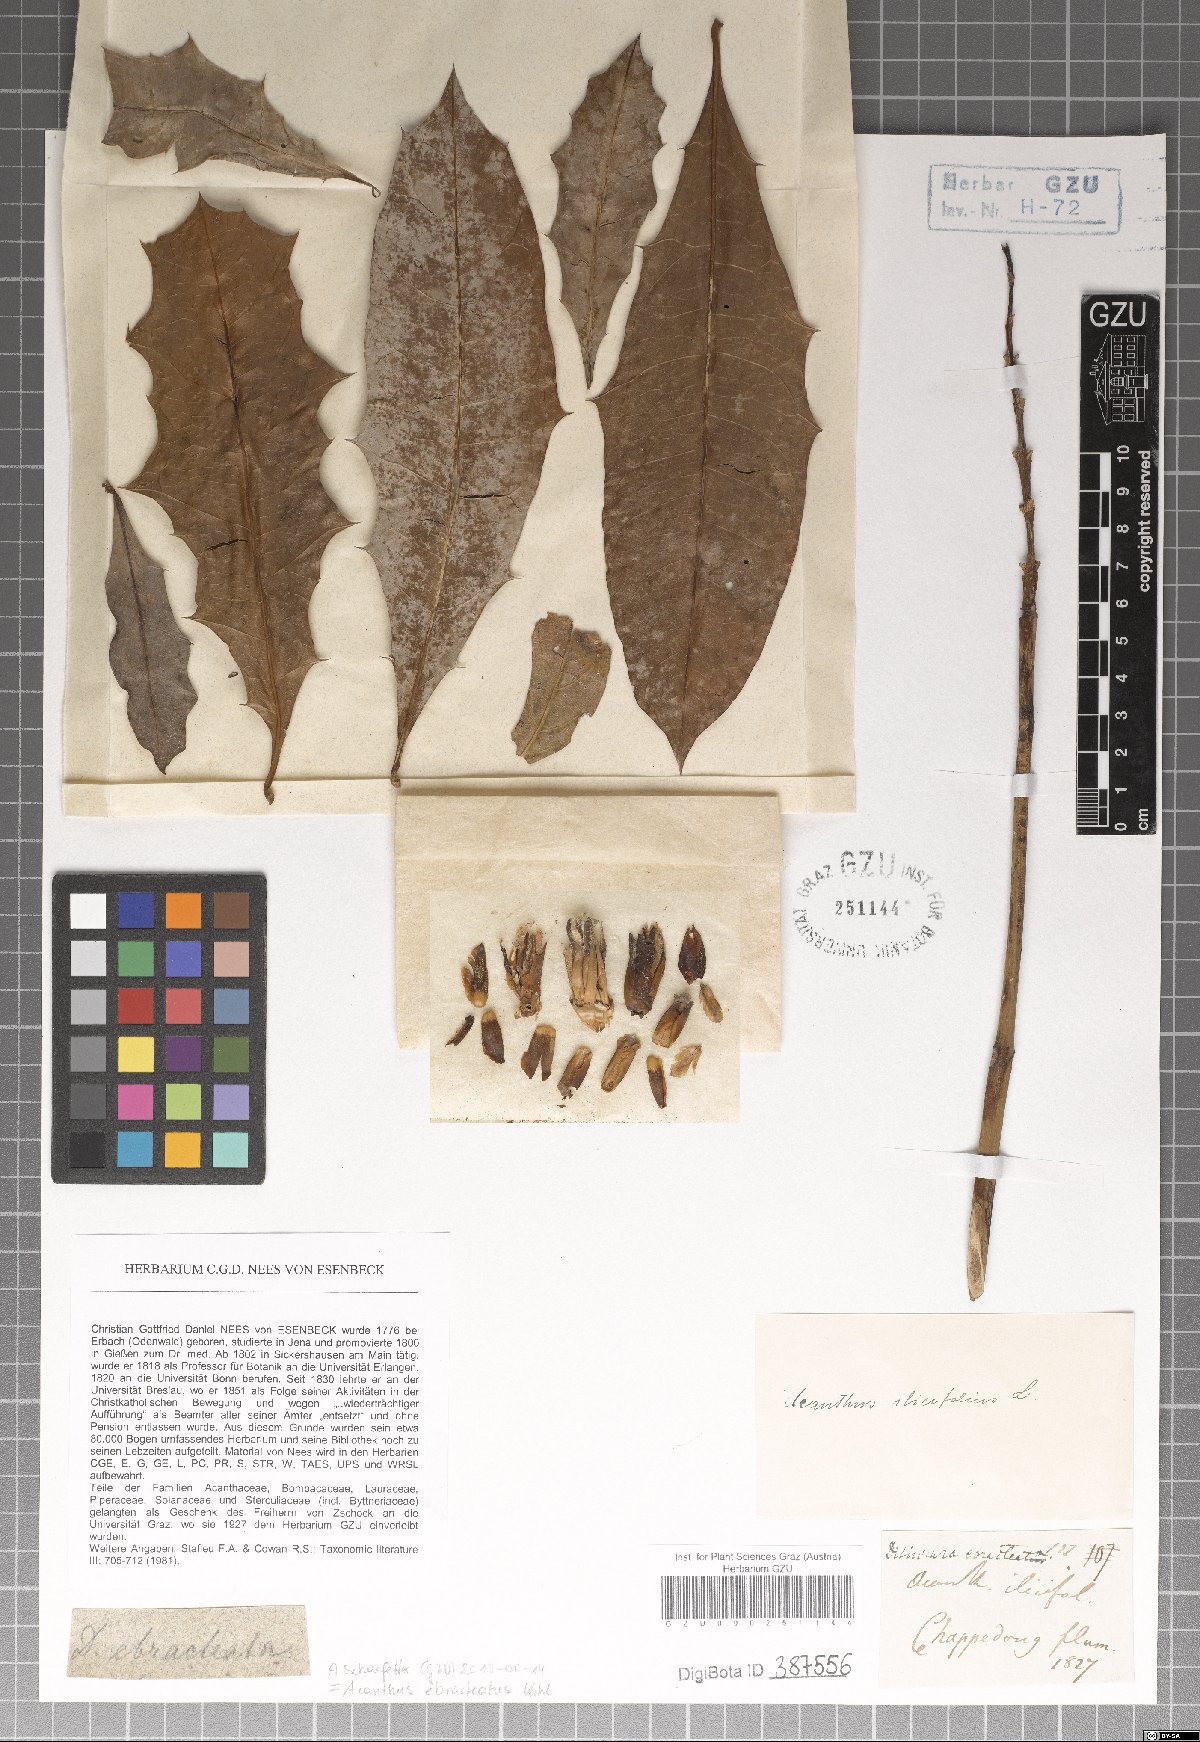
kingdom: Plantae
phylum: Tracheophyta
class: Magnoliopsida
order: Lamiales
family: Acanthaceae
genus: Acanthus
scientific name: Acanthus ebracteatus
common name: Acanthus
